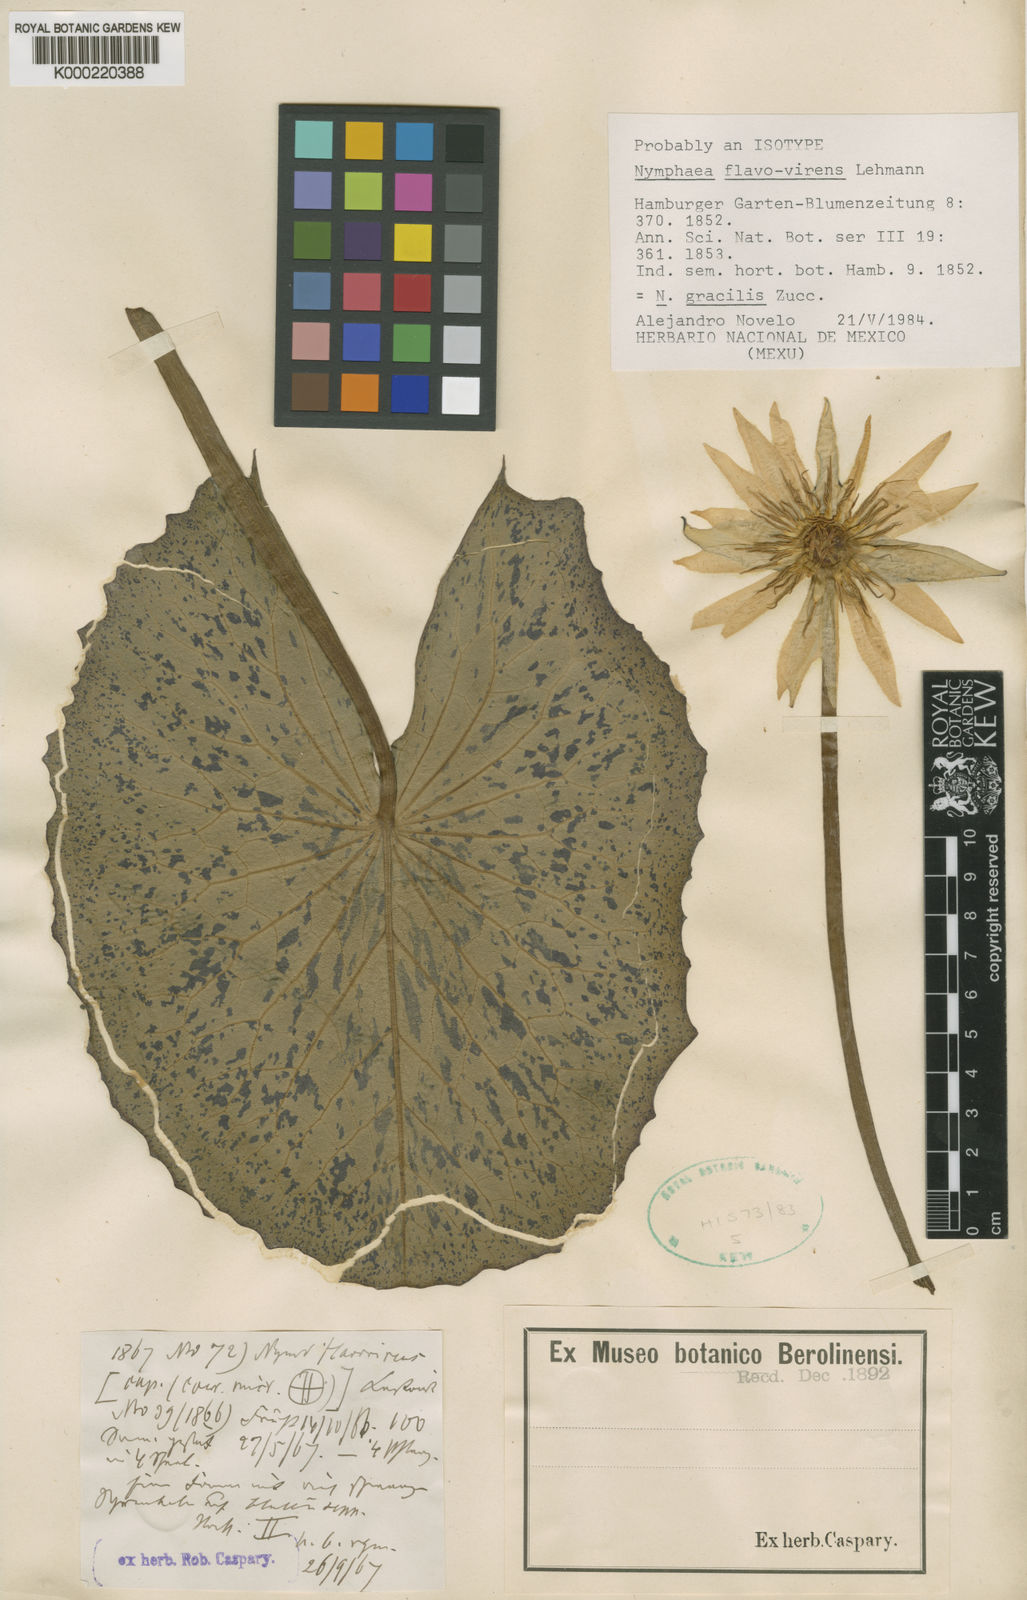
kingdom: Plantae
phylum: Tracheophyta
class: Magnoliopsida
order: Nymphaeales
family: Nymphaeaceae
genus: Nymphaea
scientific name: Nymphaea gracilis
